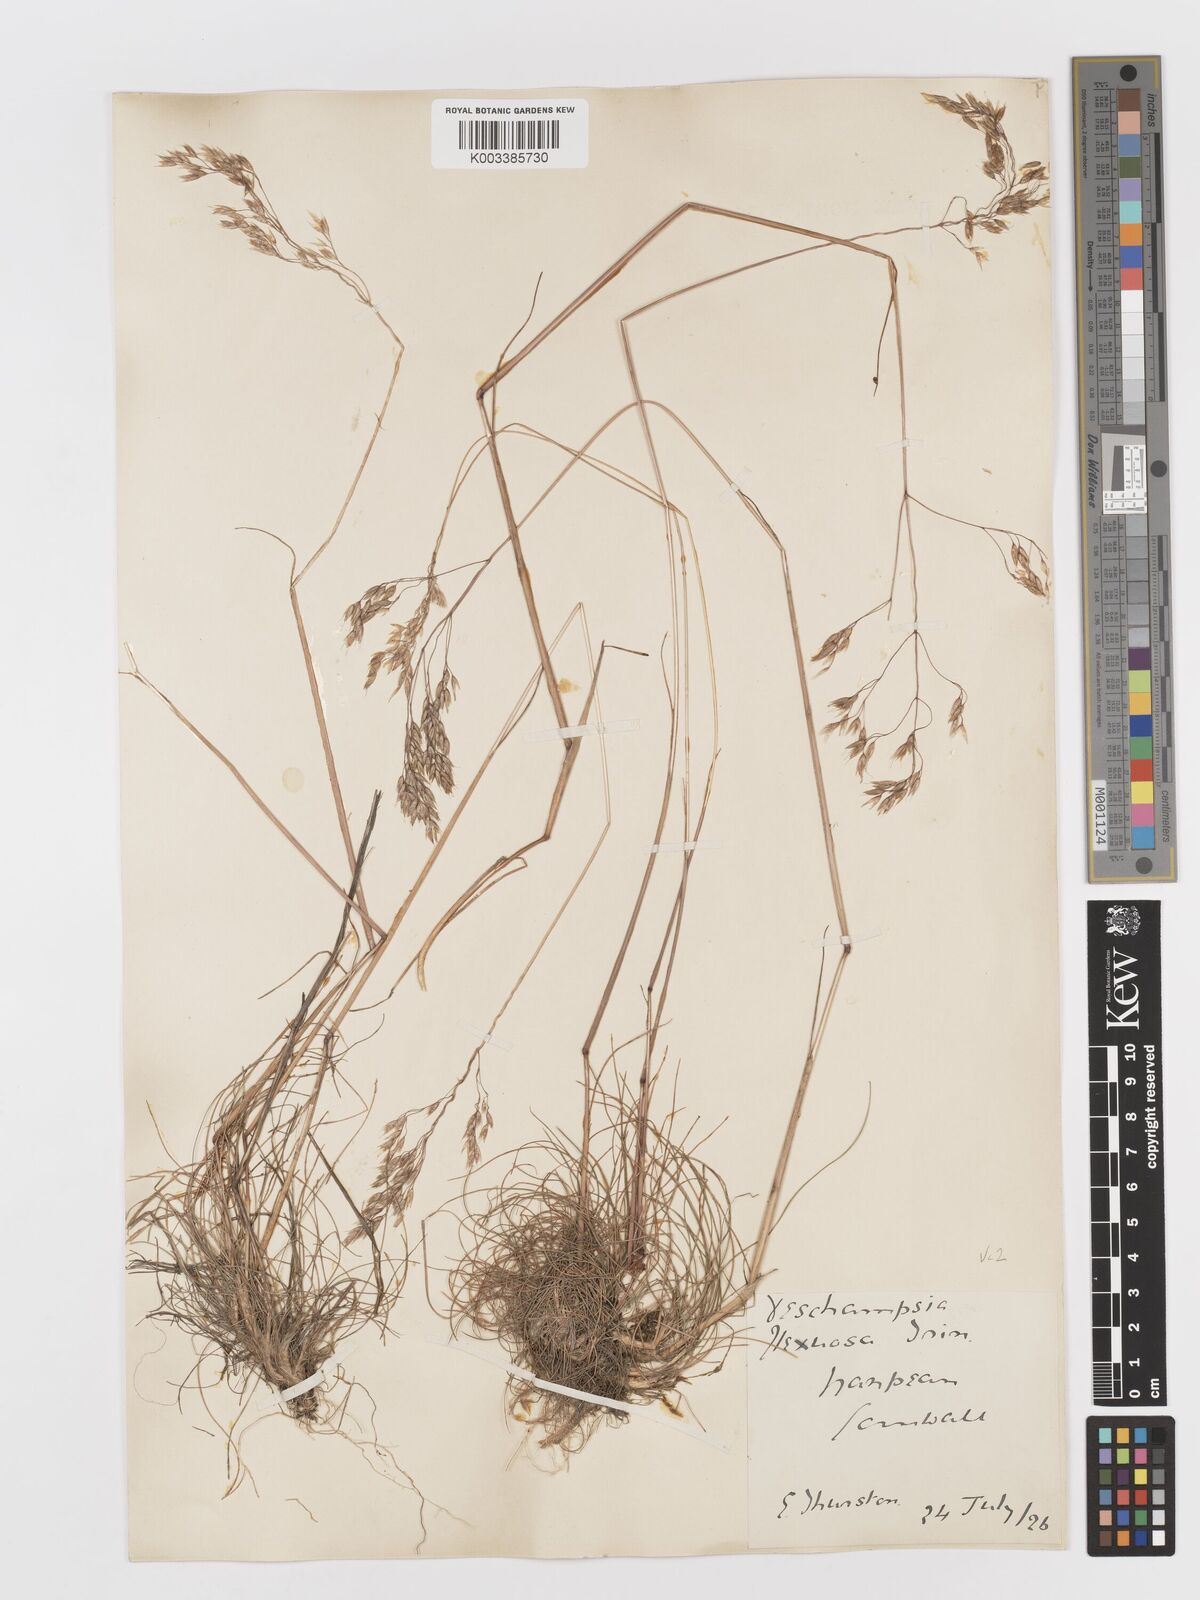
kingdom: Plantae
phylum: Tracheophyta
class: Liliopsida
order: Poales
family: Poaceae
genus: Avenella
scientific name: Avenella flexuosa
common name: Wavy hairgrass
